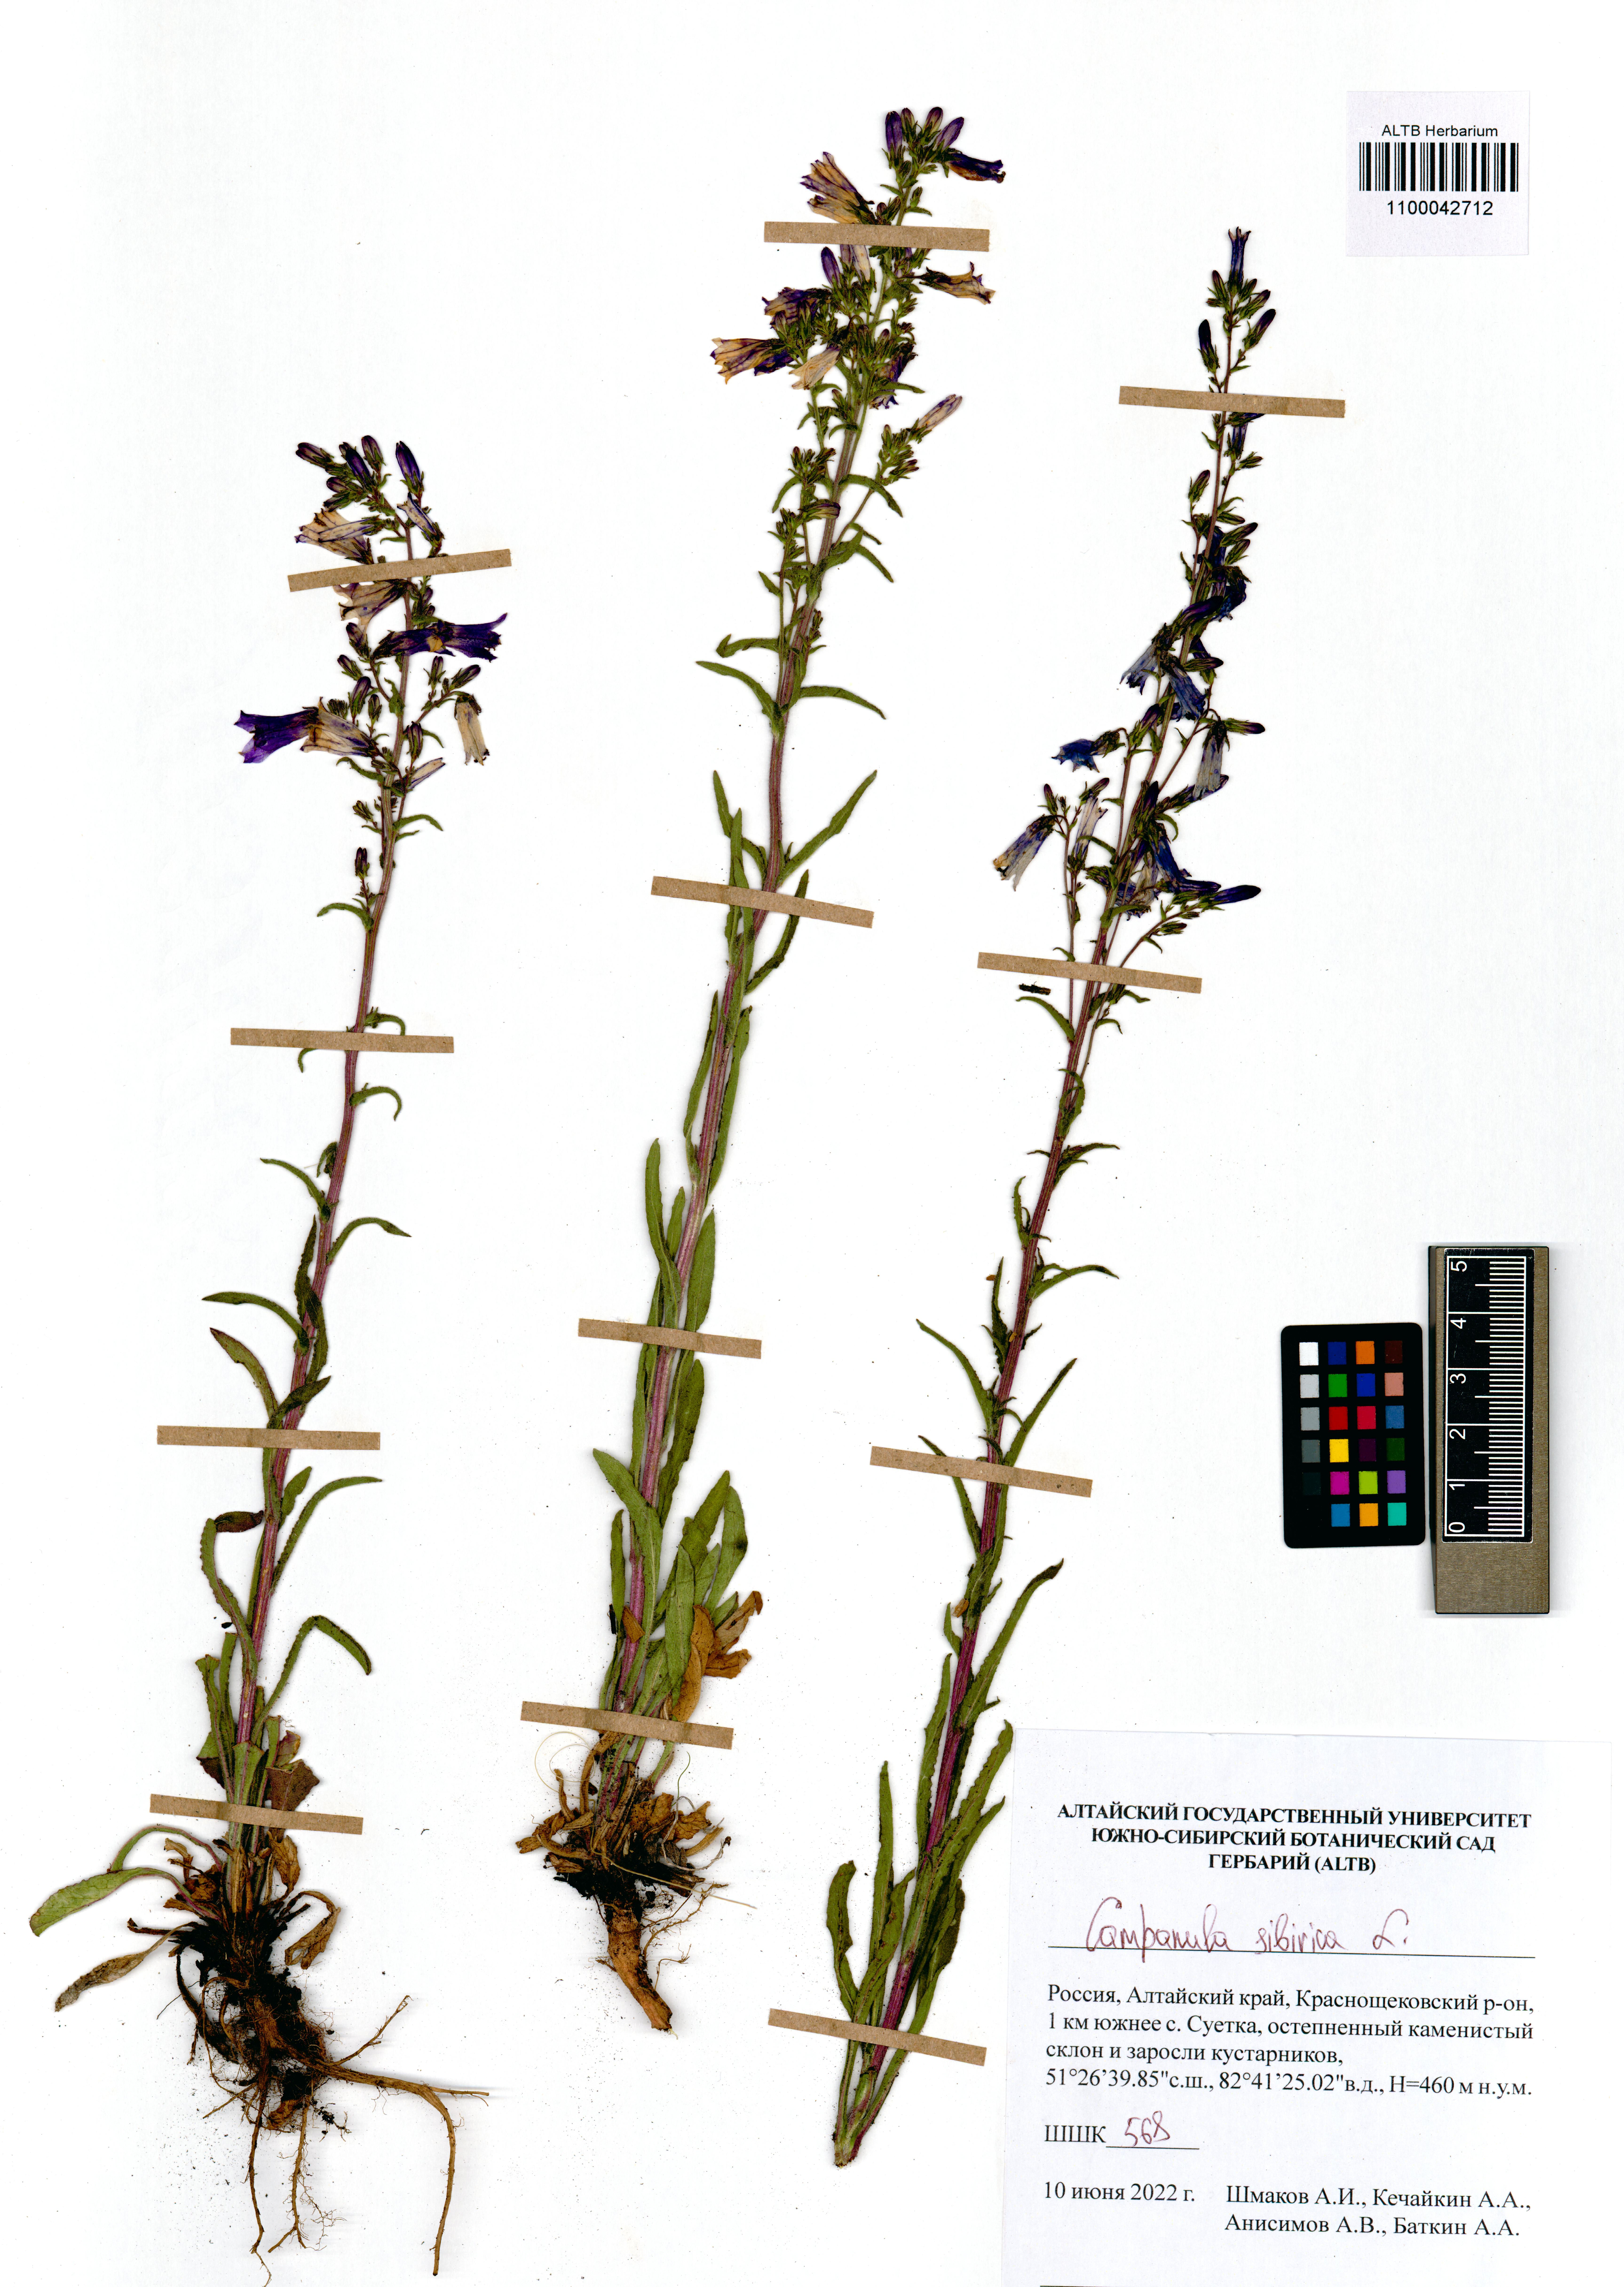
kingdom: Plantae
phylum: Tracheophyta
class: Magnoliopsida
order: Asterales
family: Campanulaceae
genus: Campanula
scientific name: Campanula sibirica
